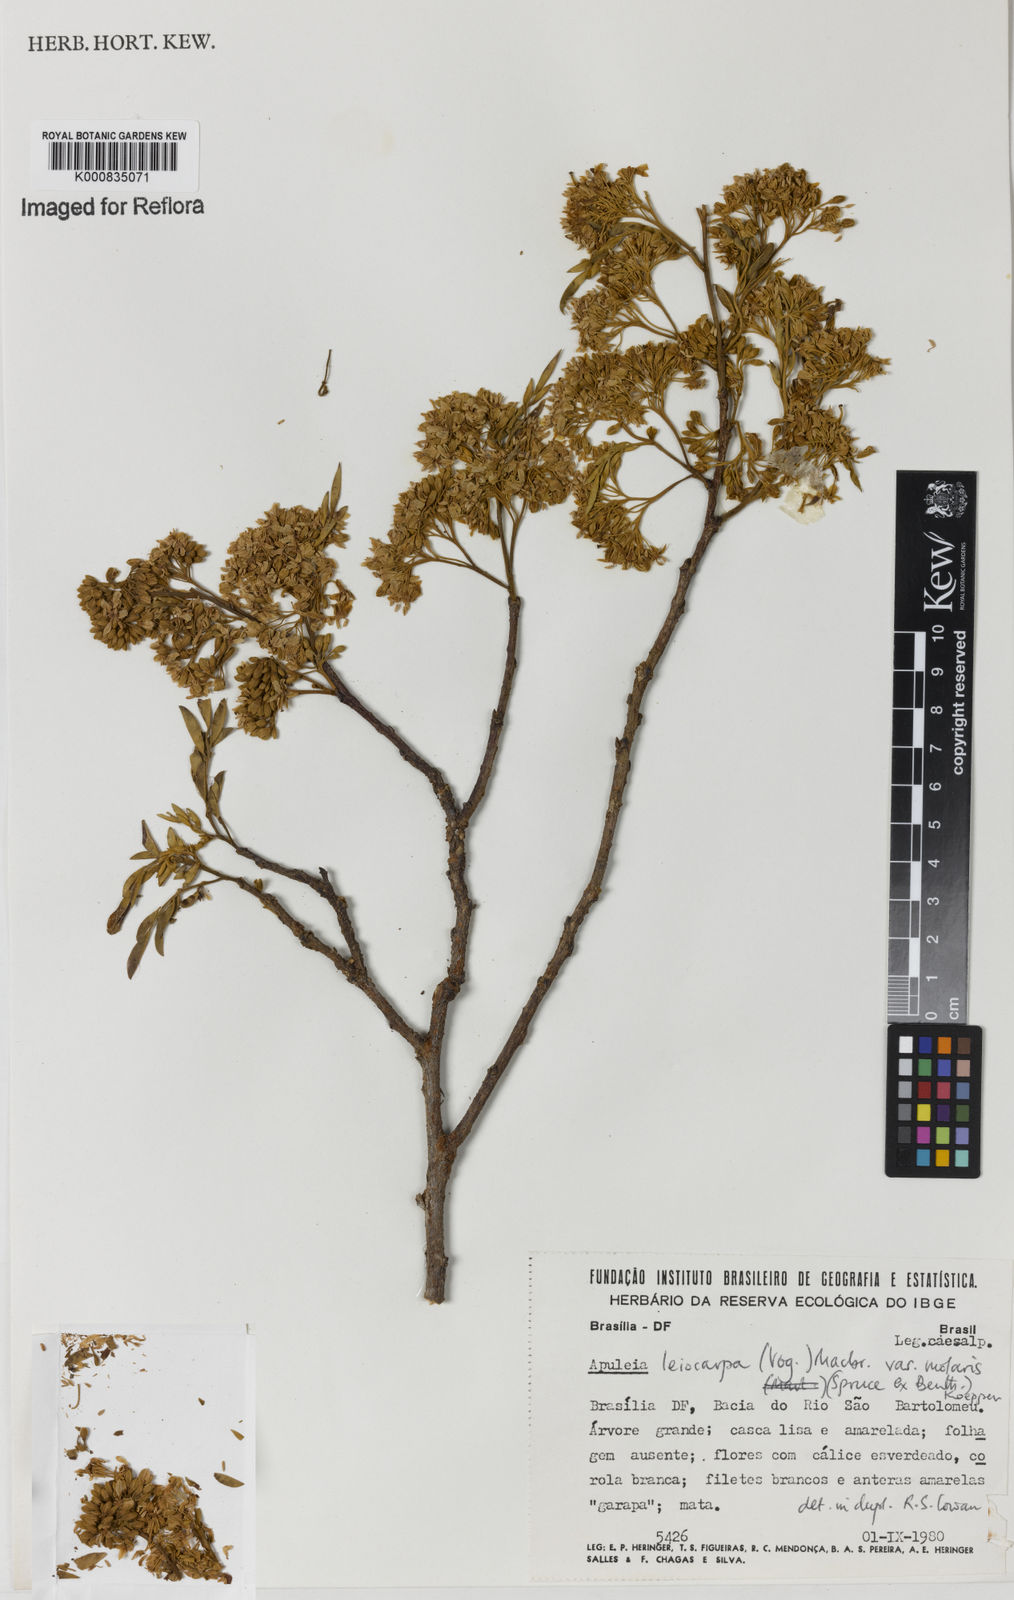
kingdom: Plantae
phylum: Tracheophyta
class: Magnoliopsida
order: Fabales
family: Fabaceae
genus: Apuleia
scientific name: Apuleia leiocarpa
